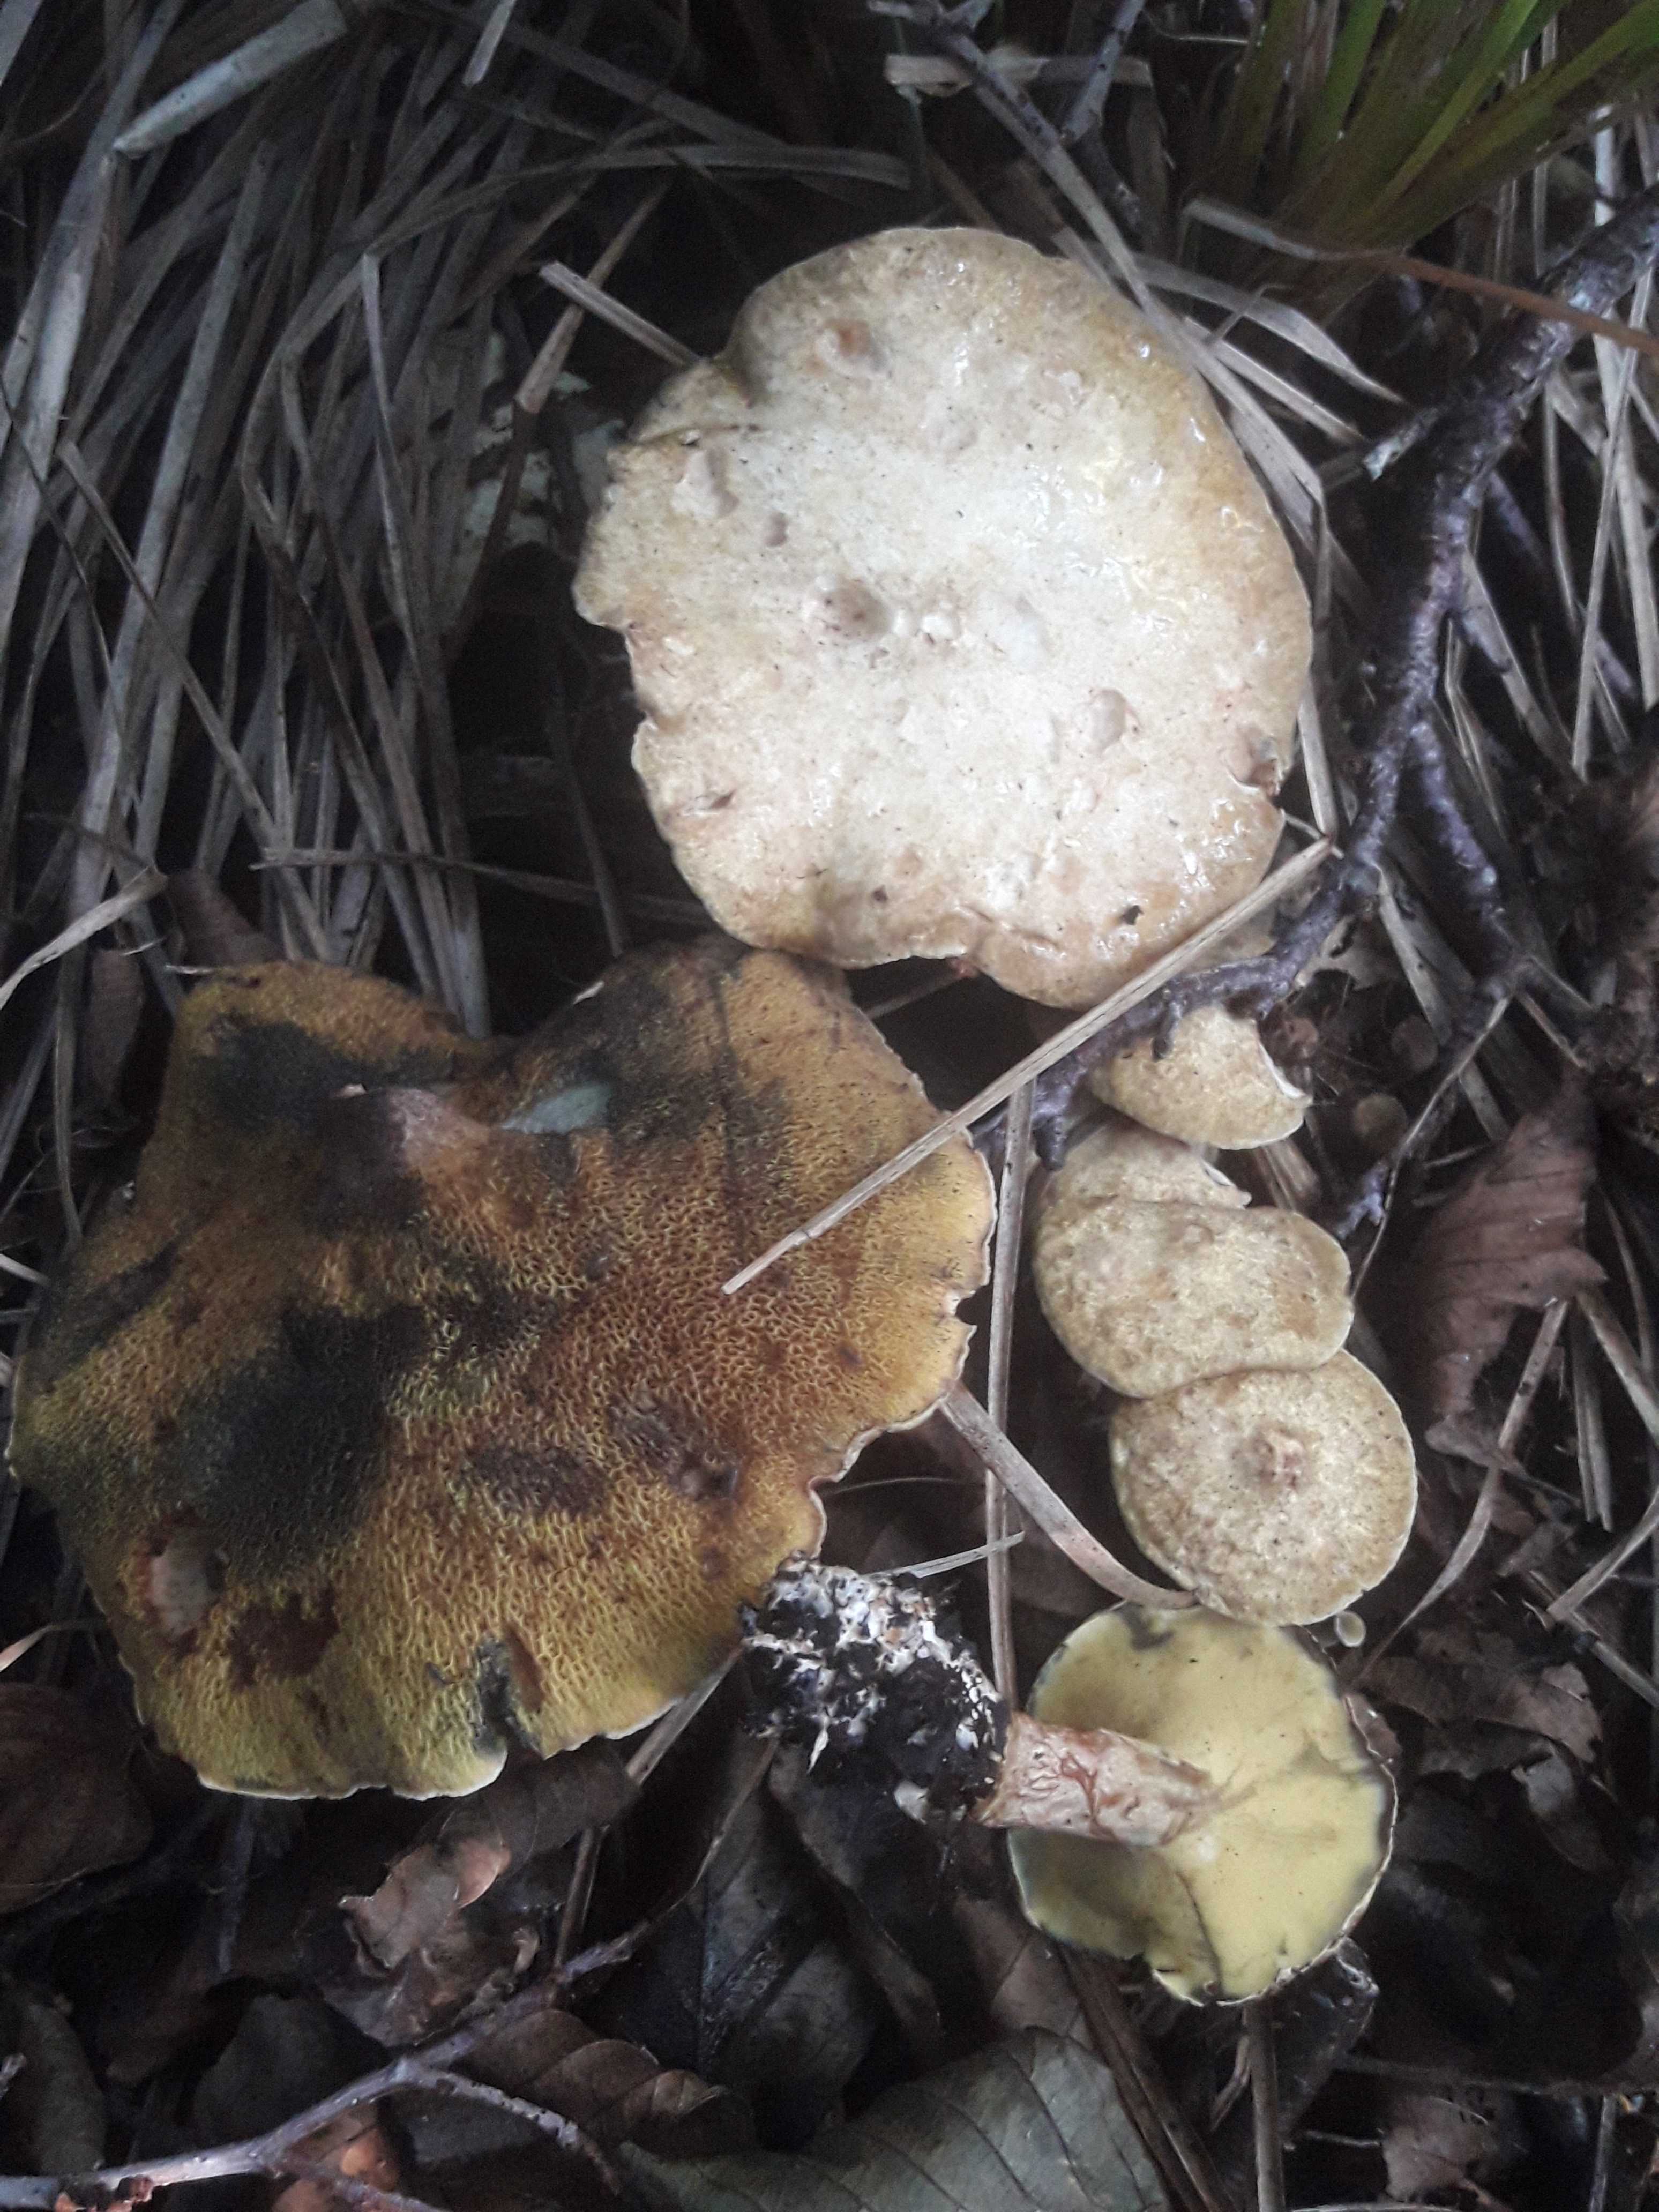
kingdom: Fungi
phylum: Basidiomycota
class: Agaricomycetes
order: Boletales
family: Paxillaceae
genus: Gyrodon
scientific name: Gyrodon lividus
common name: ellerørhat
